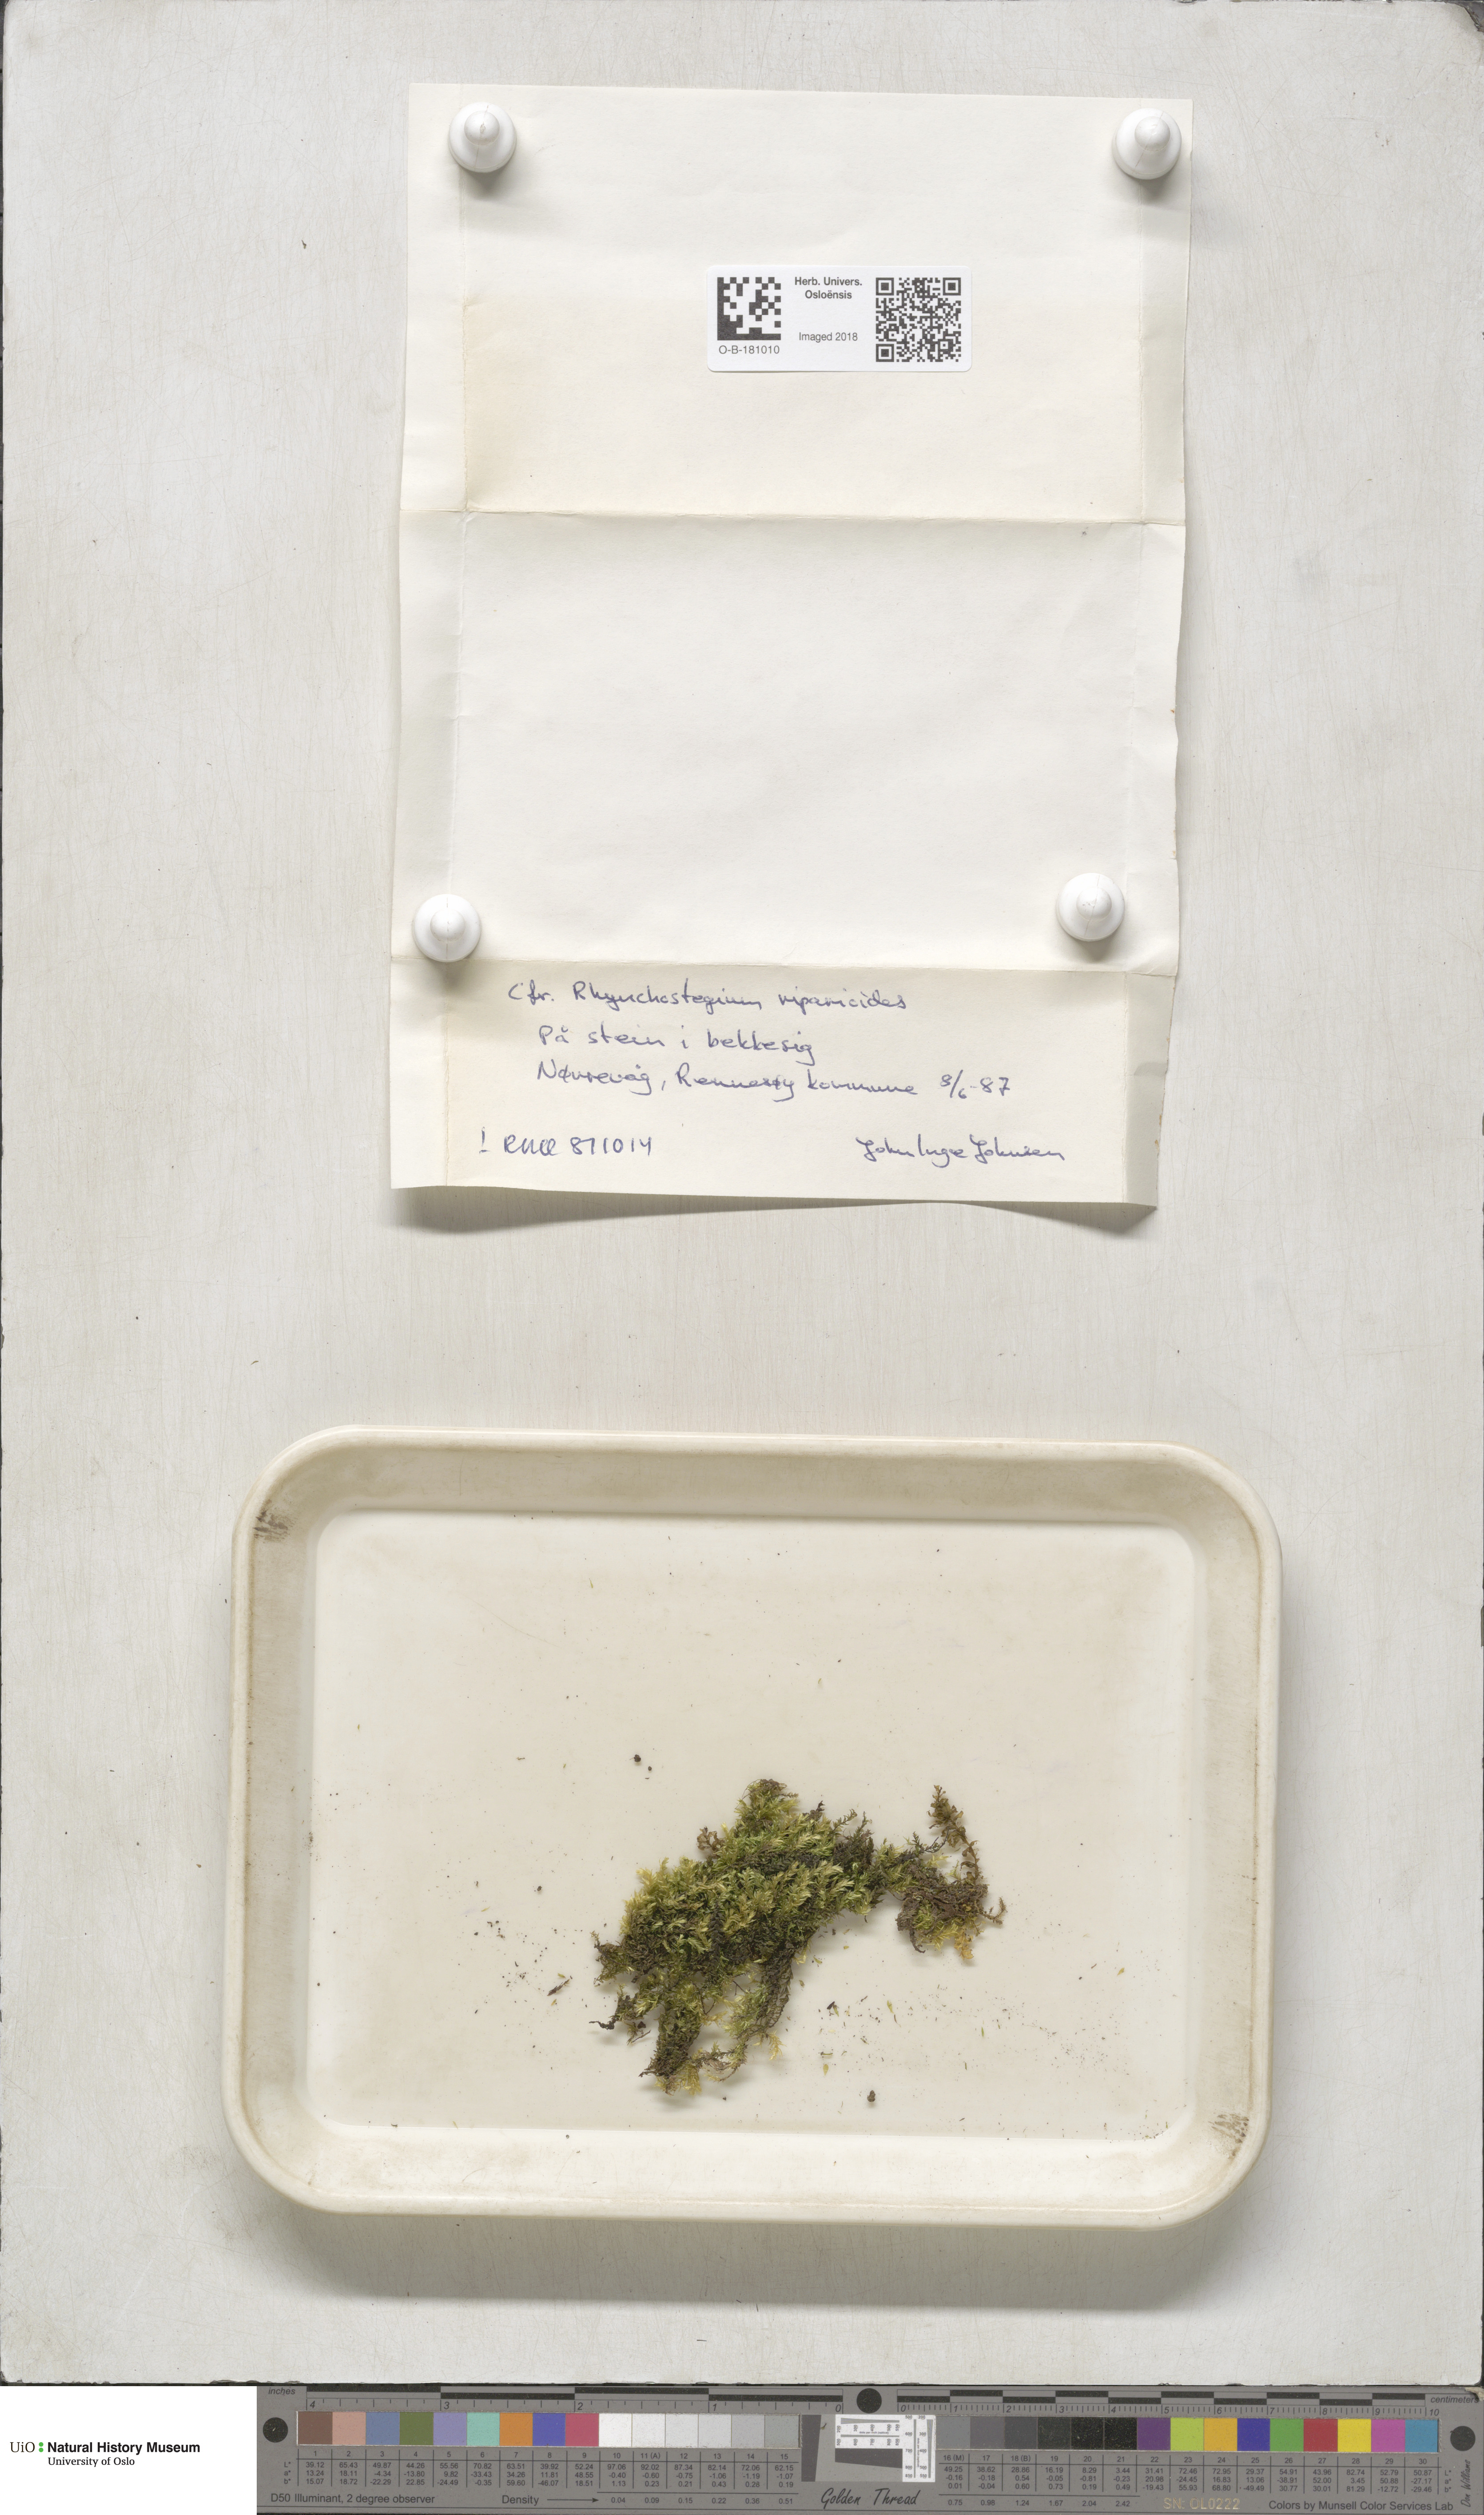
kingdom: Plantae
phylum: Bryophyta
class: Bryopsida
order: Hypnales
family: Brachytheciaceae
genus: Rhynchostegium
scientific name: Rhynchostegium riparioides
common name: Platyhypnidium moss
